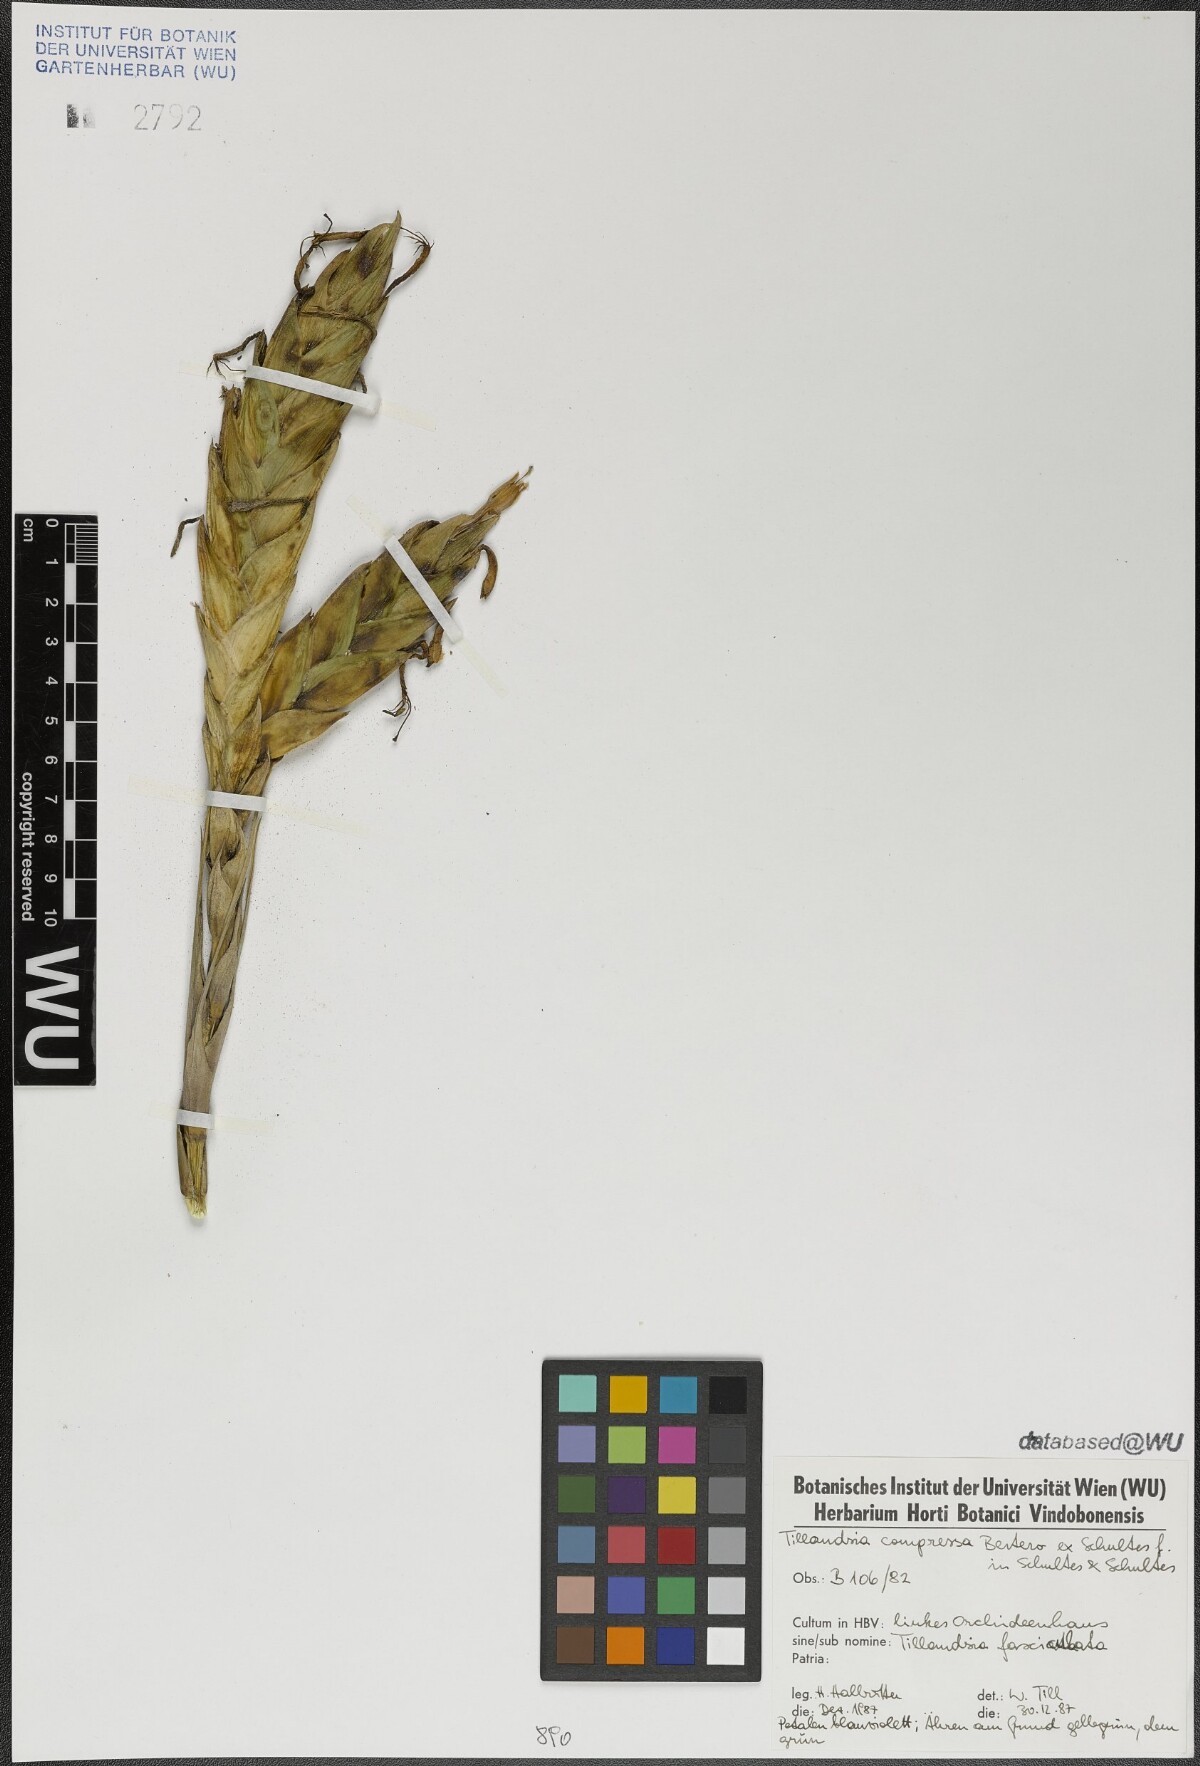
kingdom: Plantae
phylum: Tracheophyta
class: Liliopsida
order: Poales
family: Bromeliaceae
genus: Tillandsia
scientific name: Tillandsia compressa
